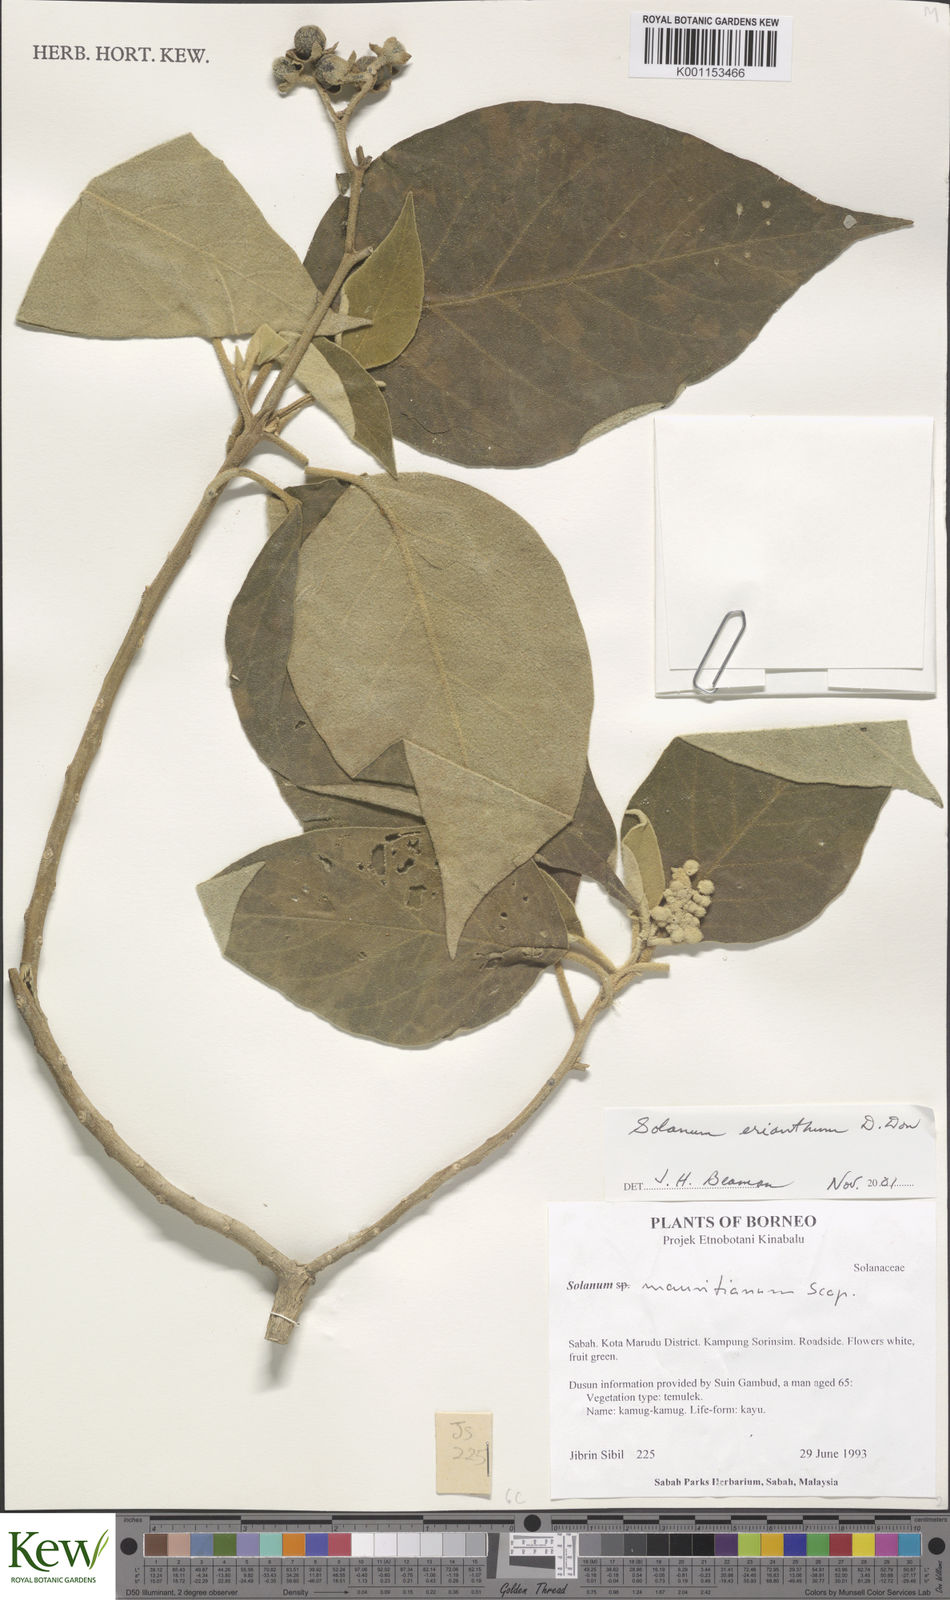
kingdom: Plantae
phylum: Tracheophyta
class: Magnoliopsida
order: Solanales
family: Solanaceae
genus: Solanum
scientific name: Solanum erianthum
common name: Tobacco-tree
